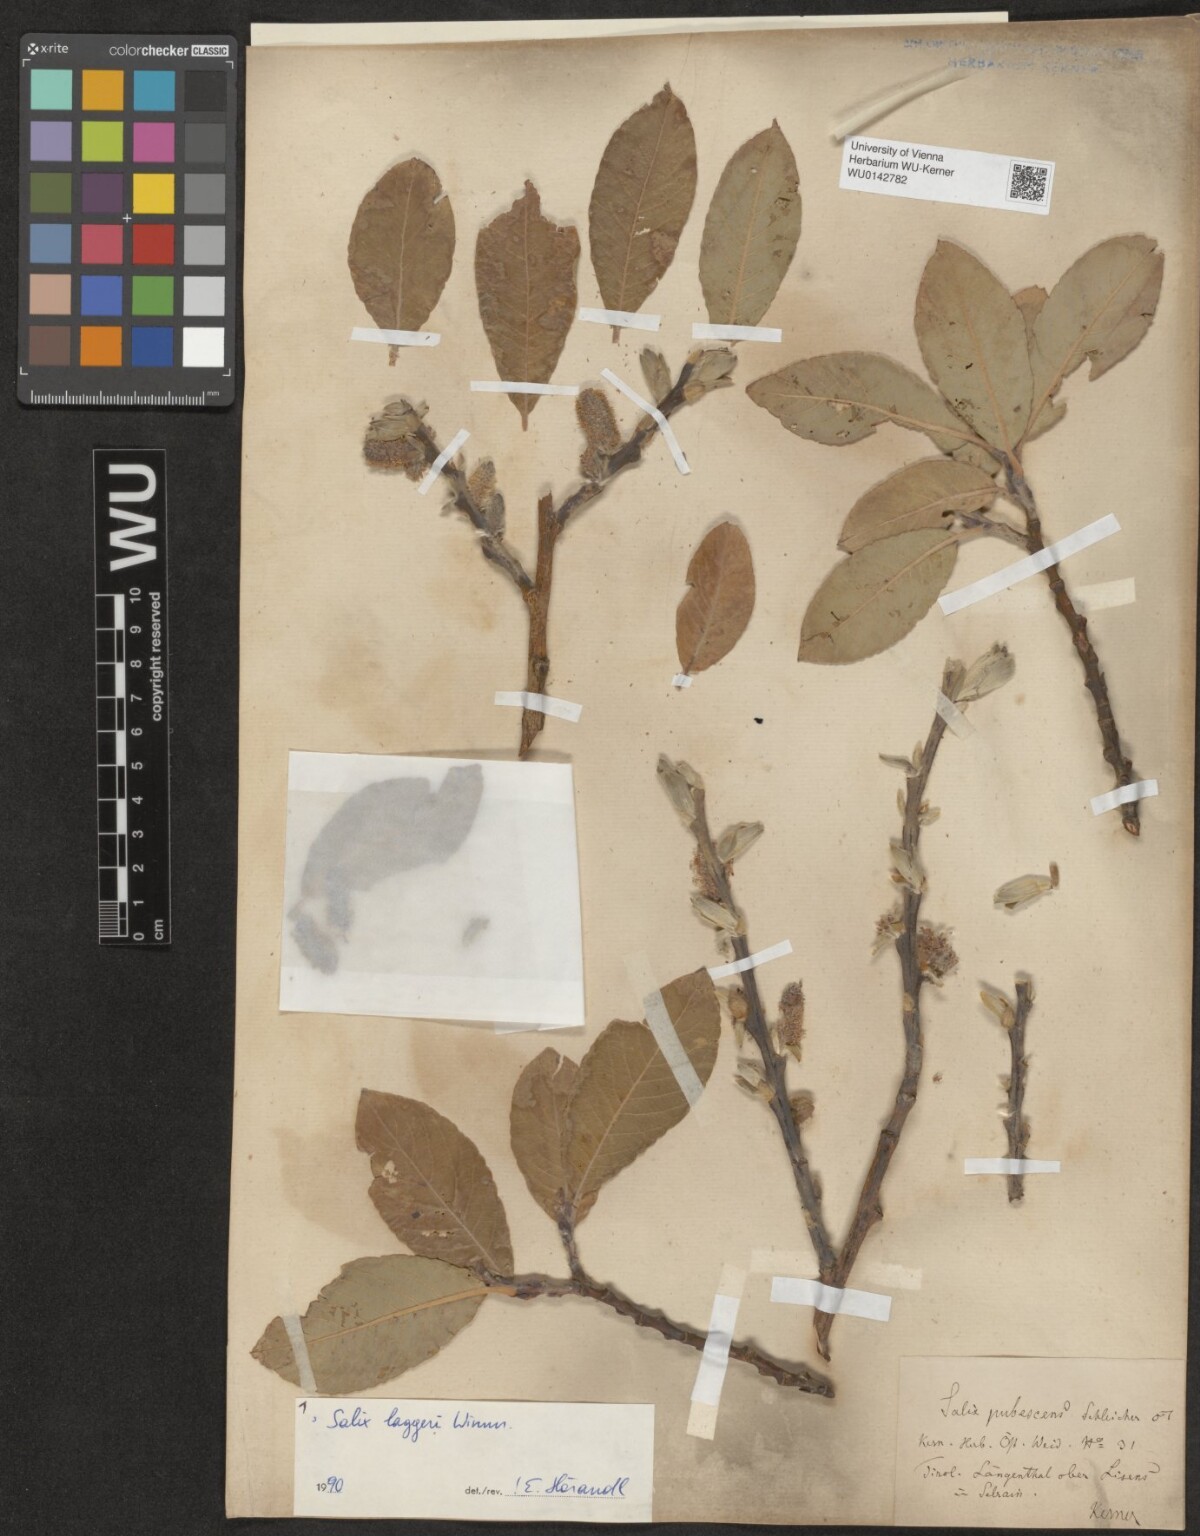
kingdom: Plantae
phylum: Tracheophyta
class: Magnoliopsida
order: Malpighiales
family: Salicaceae
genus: Salix
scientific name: Salix laggeri
